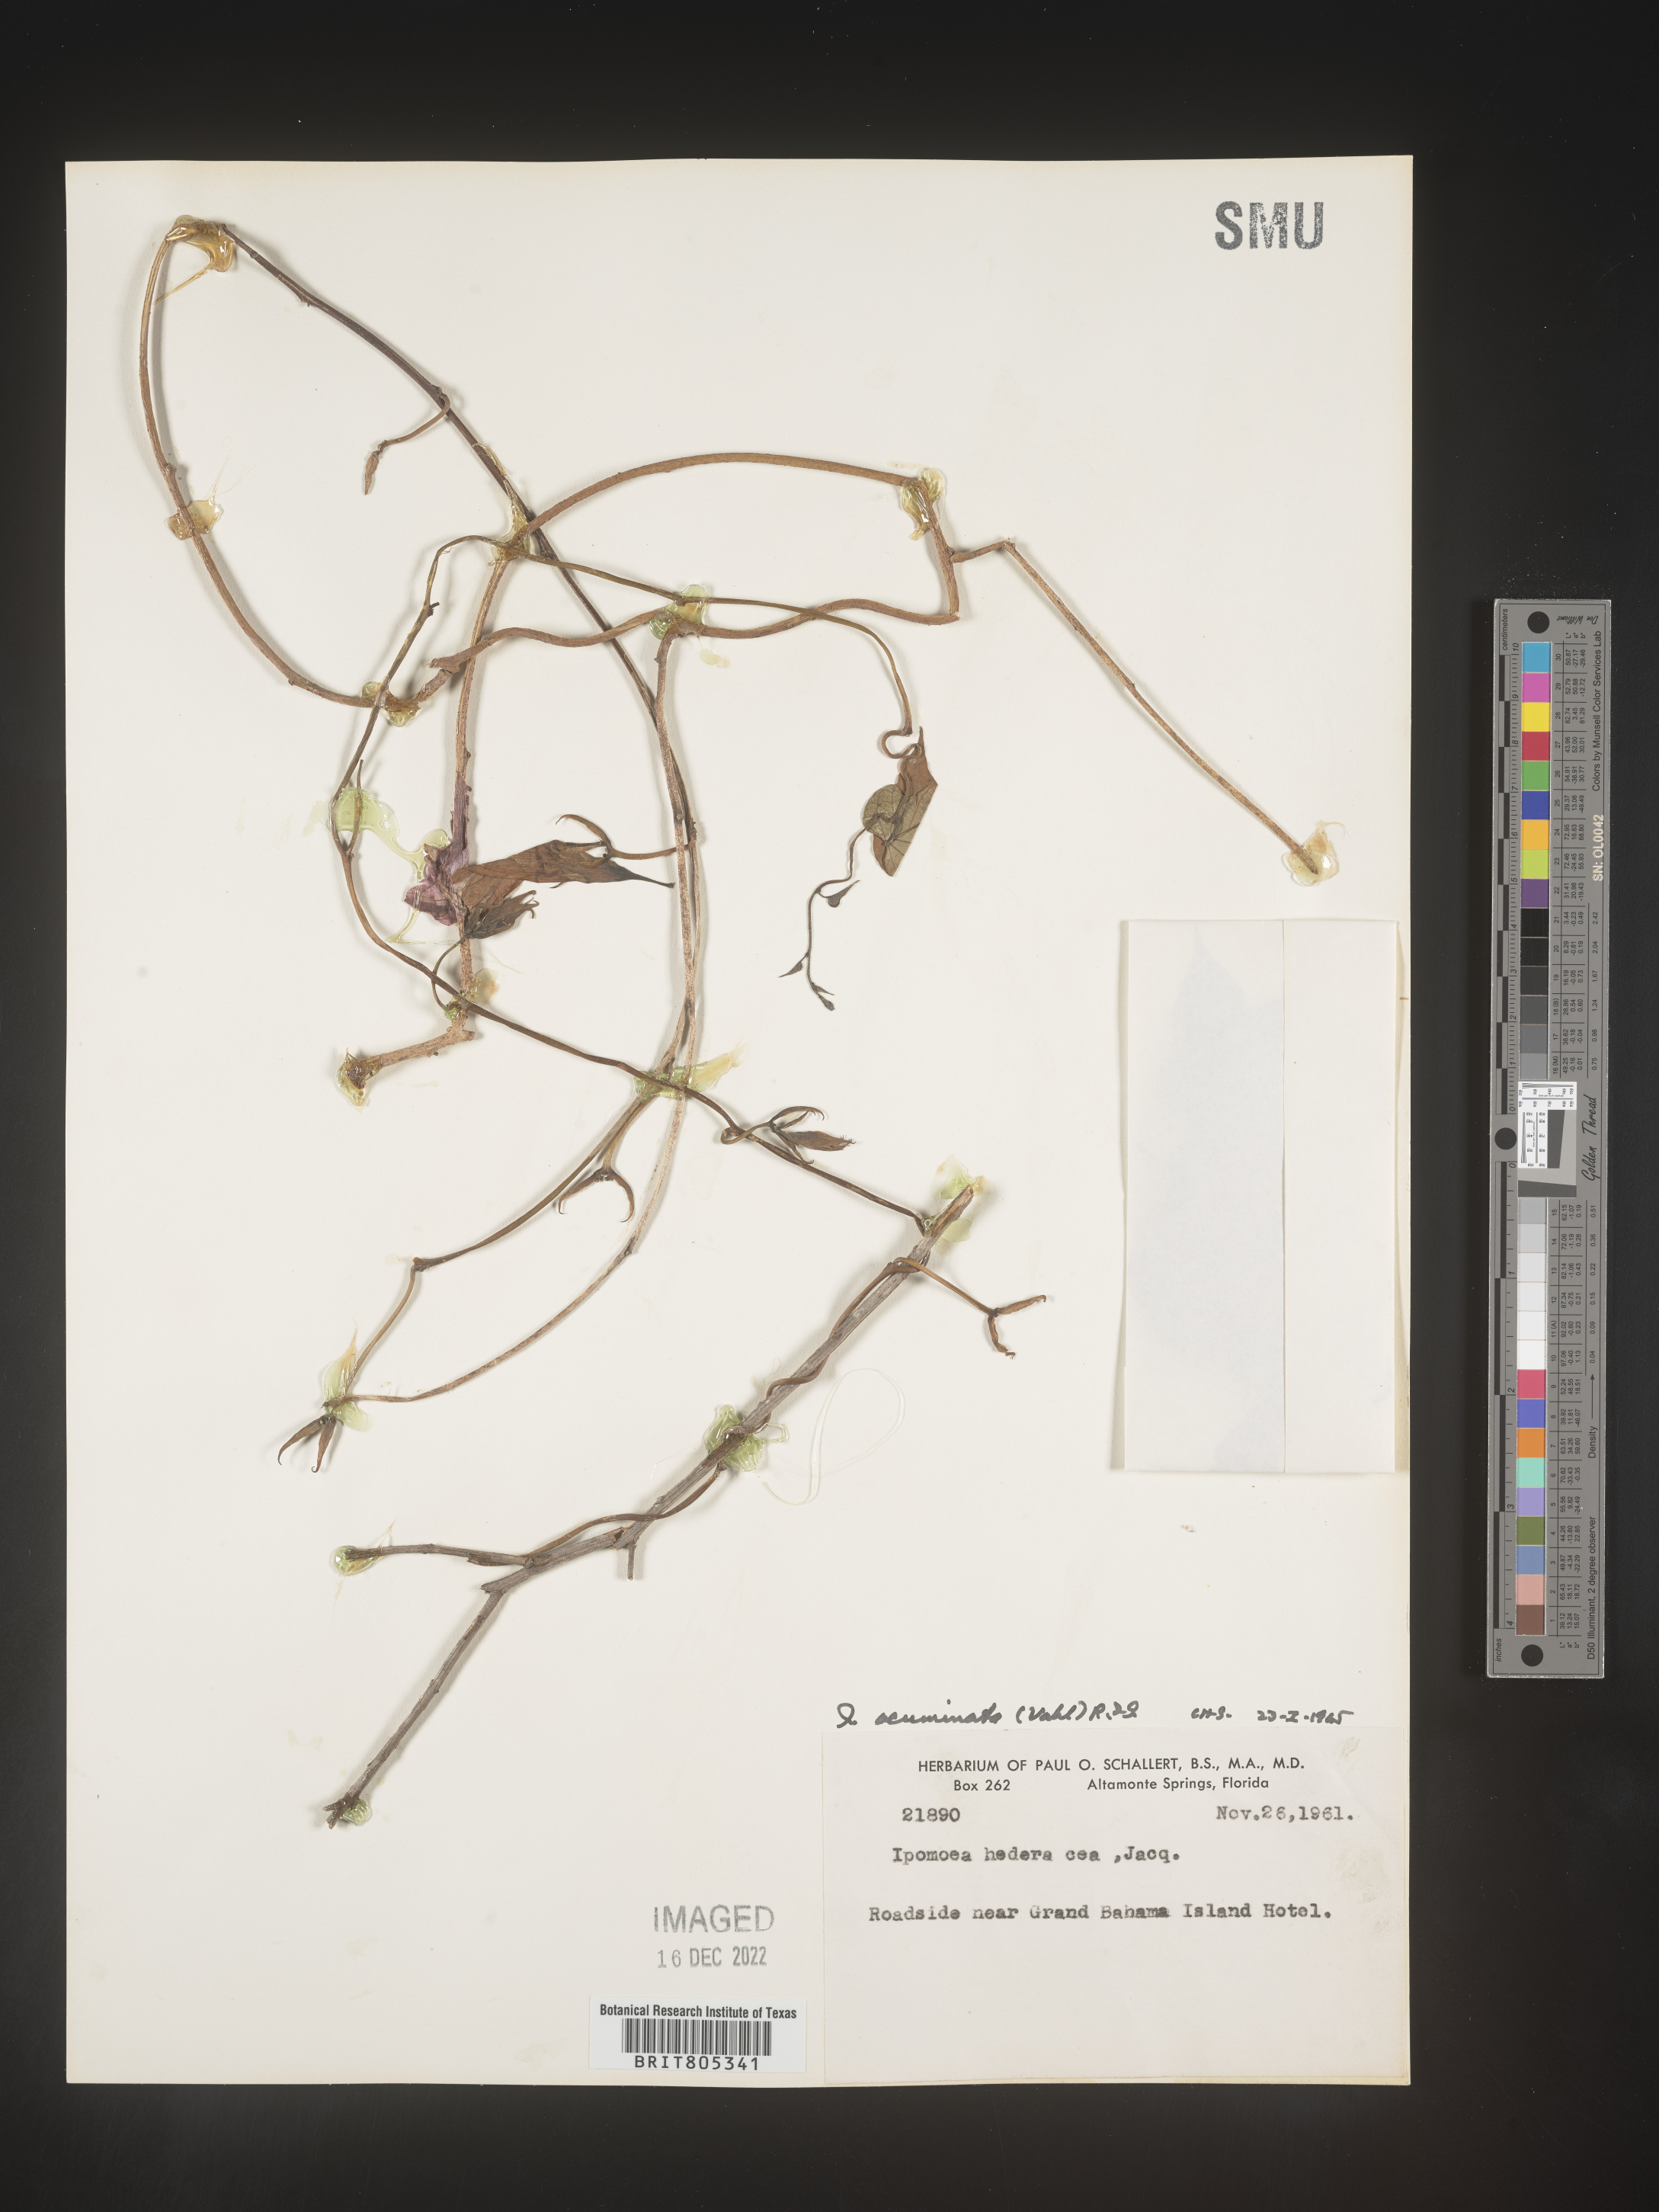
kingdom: Plantae
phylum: Tracheophyta
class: Magnoliopsida
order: Solanales
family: Convolvulaceae
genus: Ipomoea
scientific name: Ipomoea
